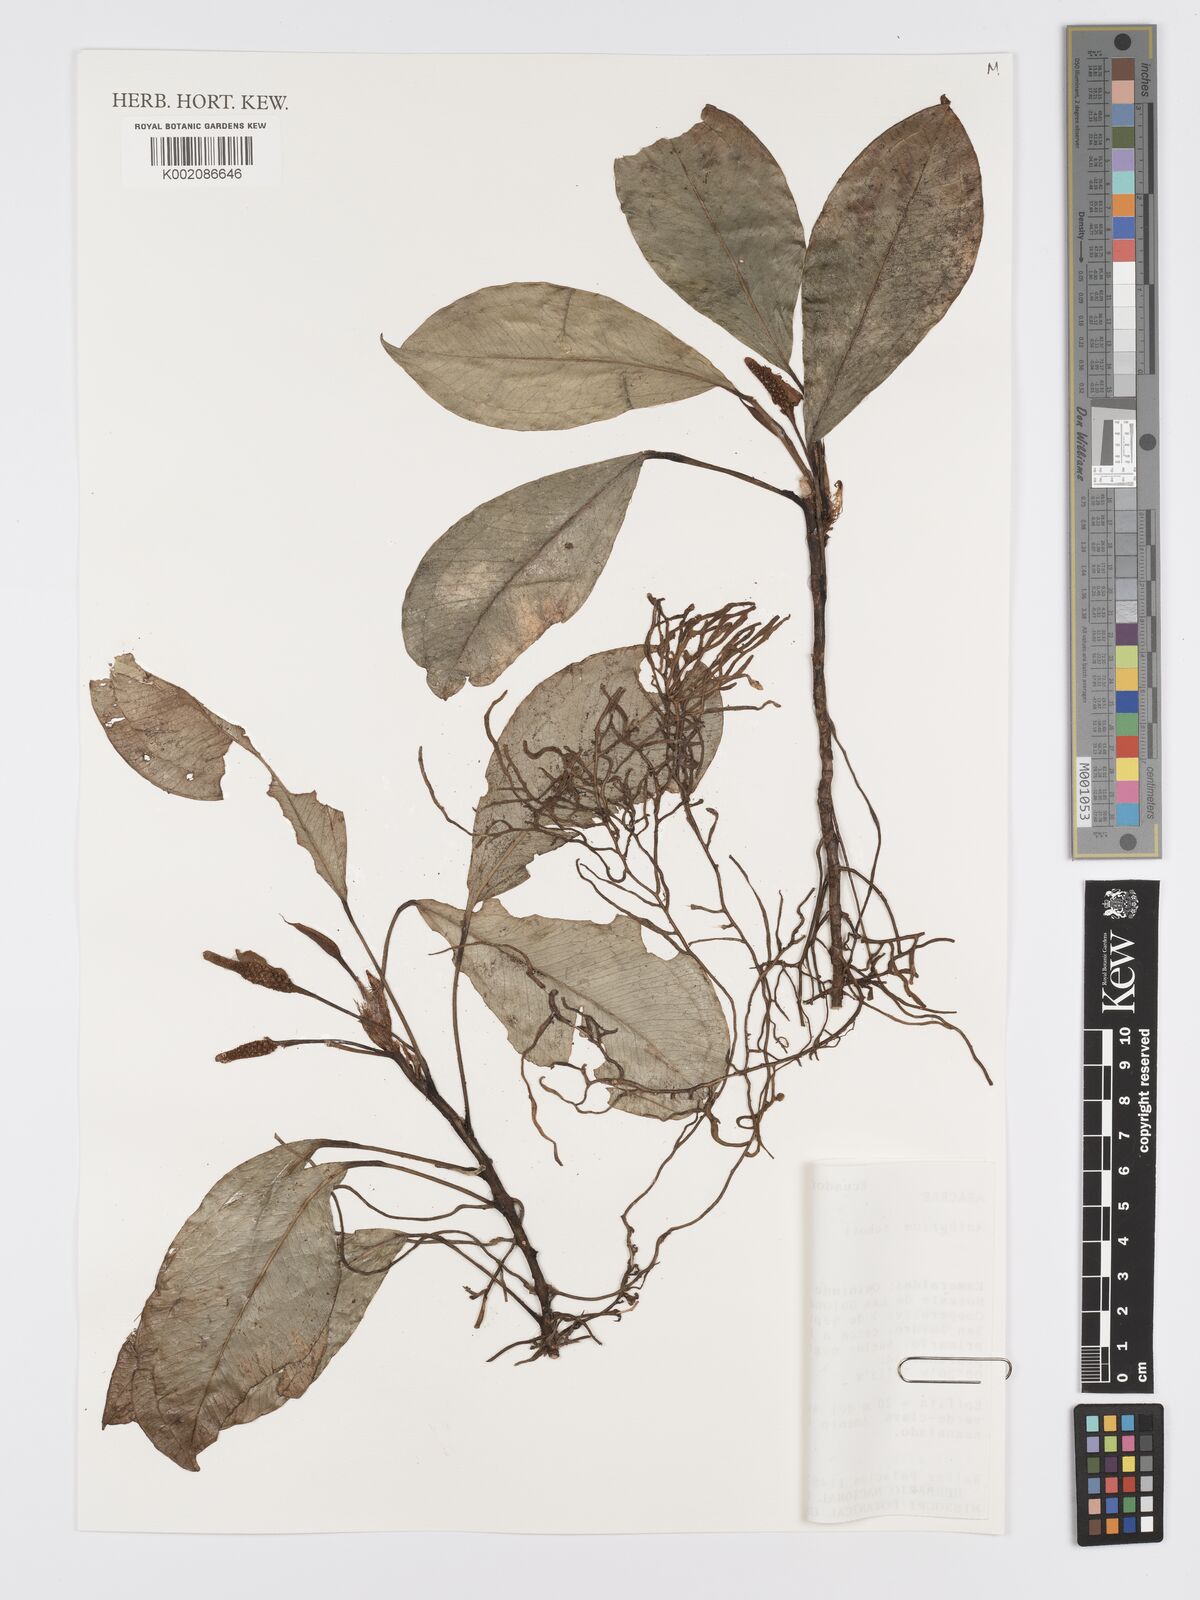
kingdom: Plantae
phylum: Tracheophyta
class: Liliopsida
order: Alismatales
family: Araceae
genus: Anthurium
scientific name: Anthurium obtusum
